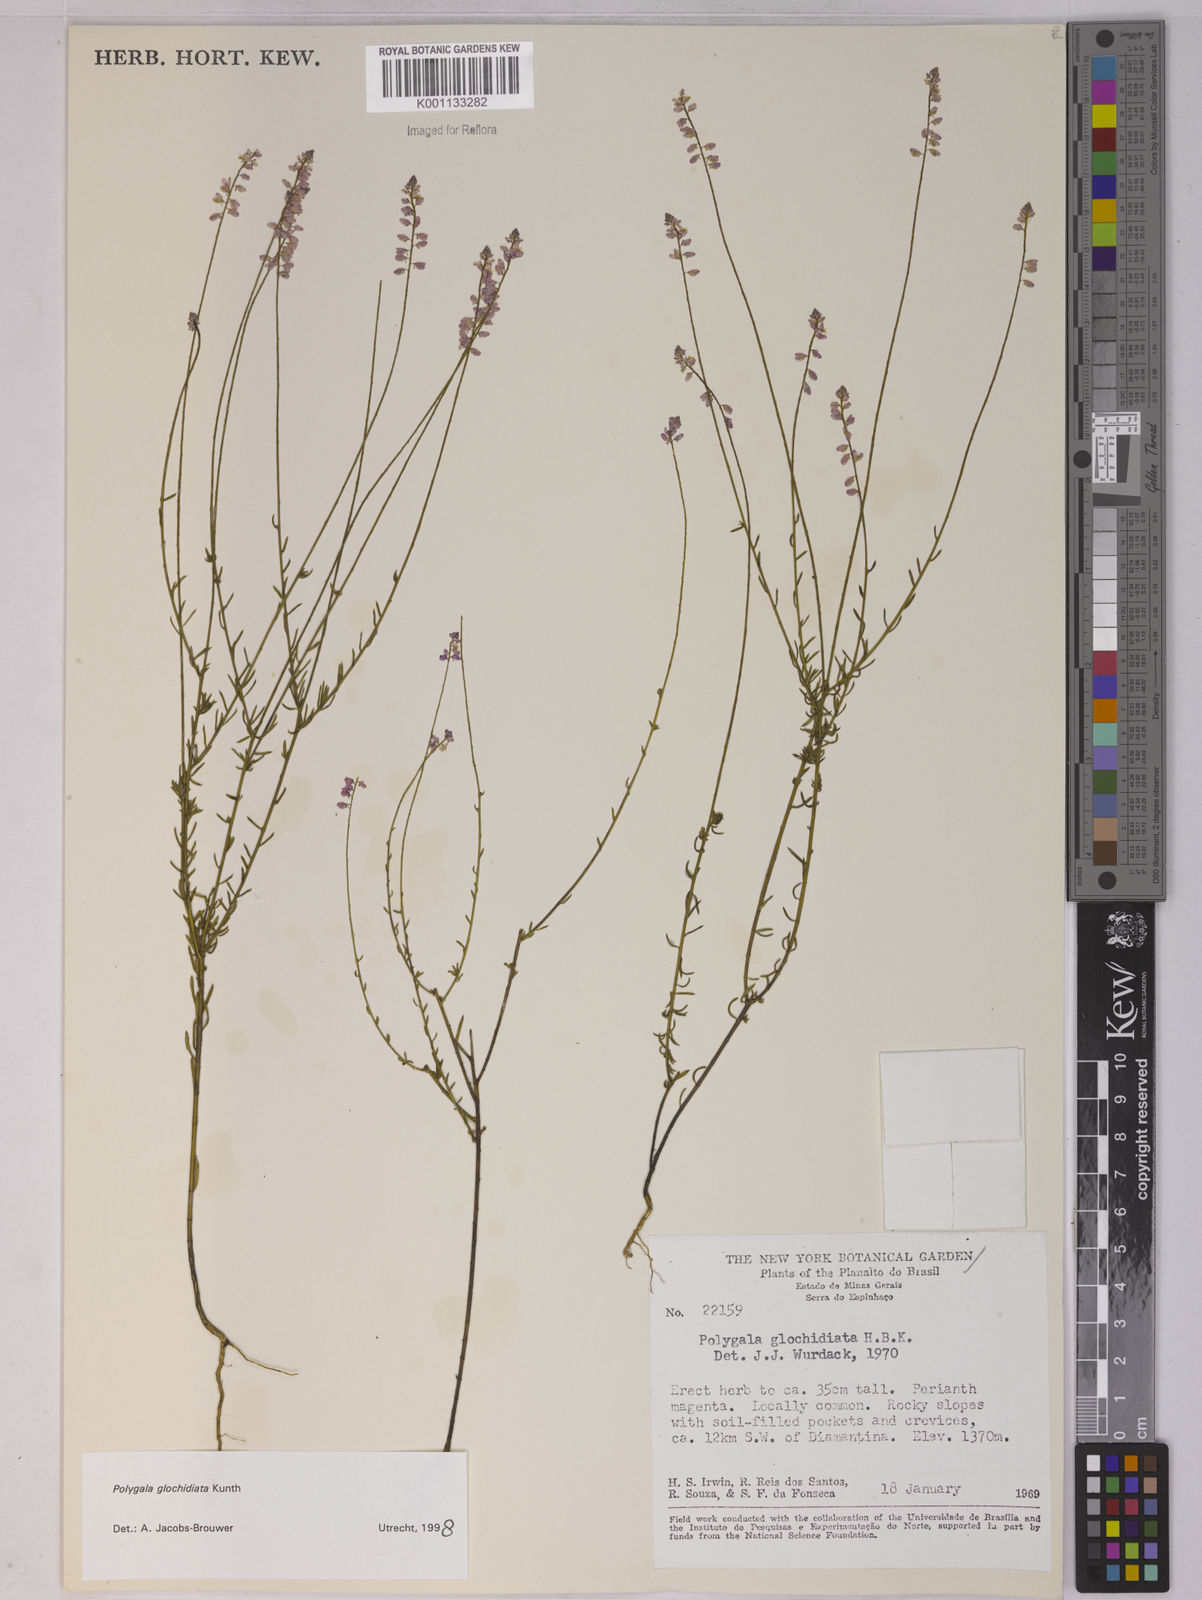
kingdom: Plantae
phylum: Tracheophyta
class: Magnoliopsida
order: Fabales
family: Polygalaceae
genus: Polygala
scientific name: Polygala glochidiata
